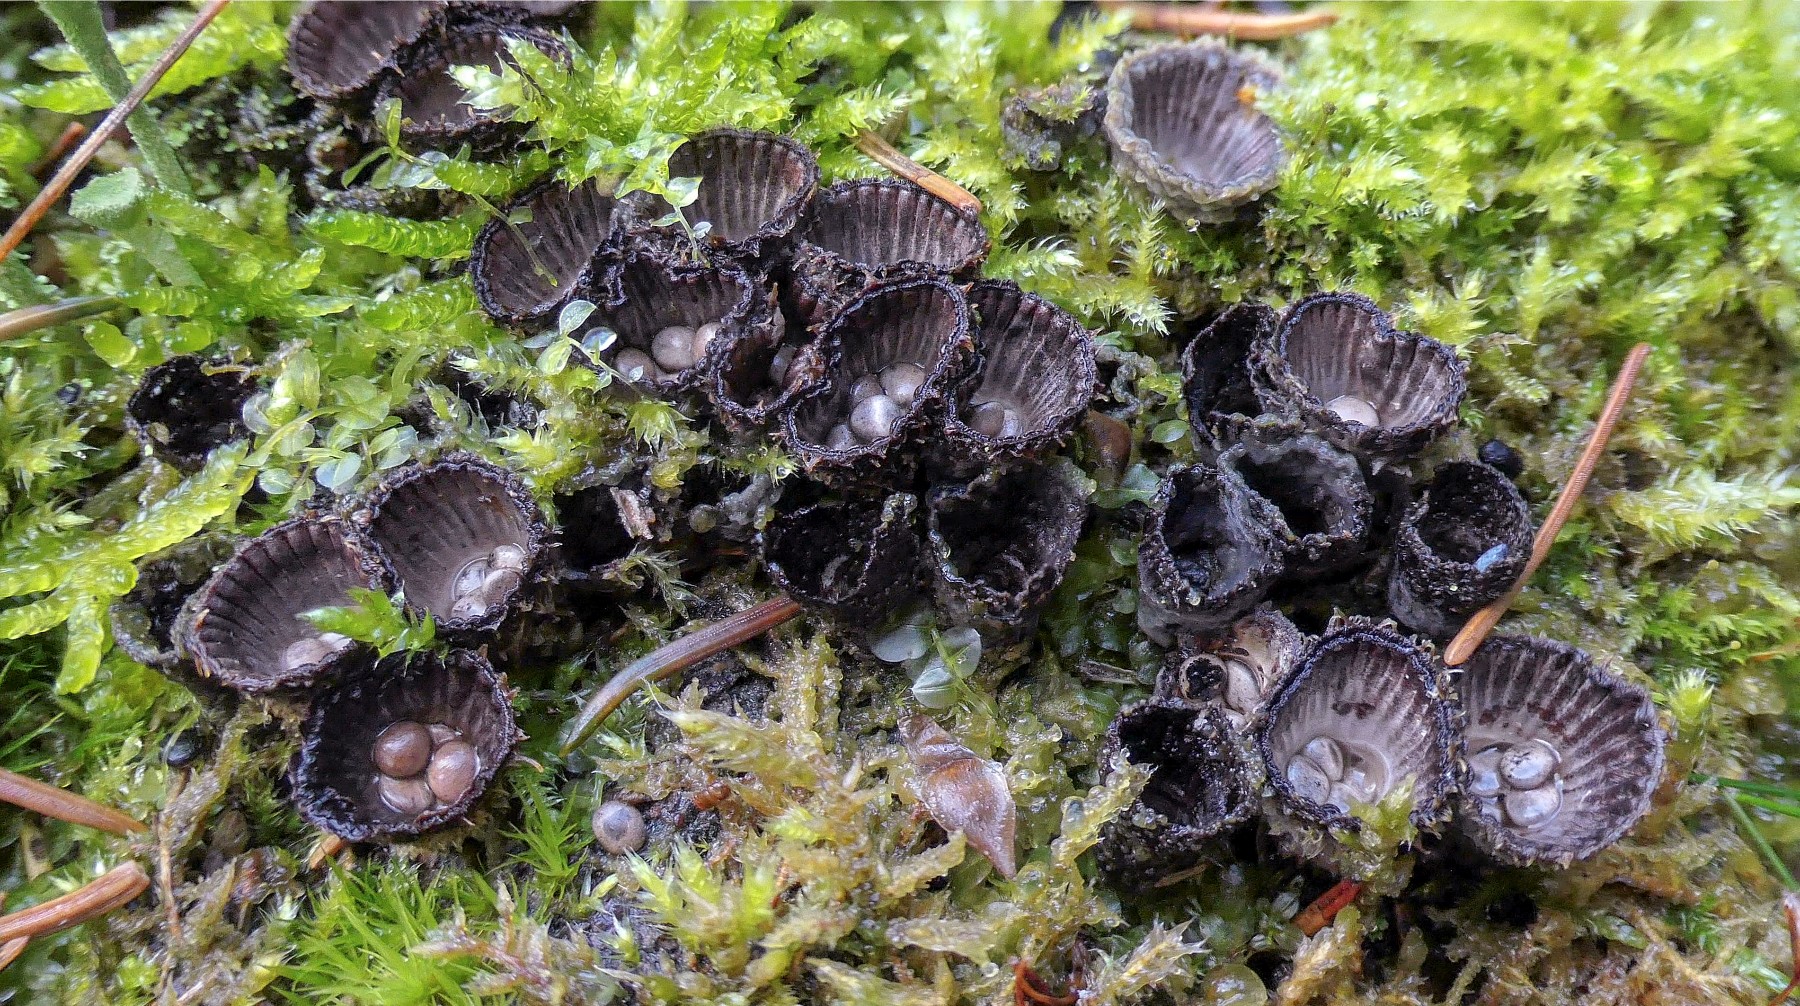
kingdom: Fungi
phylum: Basidiomycota
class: Agaricomycetes
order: Agaricales
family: Agaricaceae
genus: Cyathus
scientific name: Cyathus striatus
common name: stribet redesvamp
